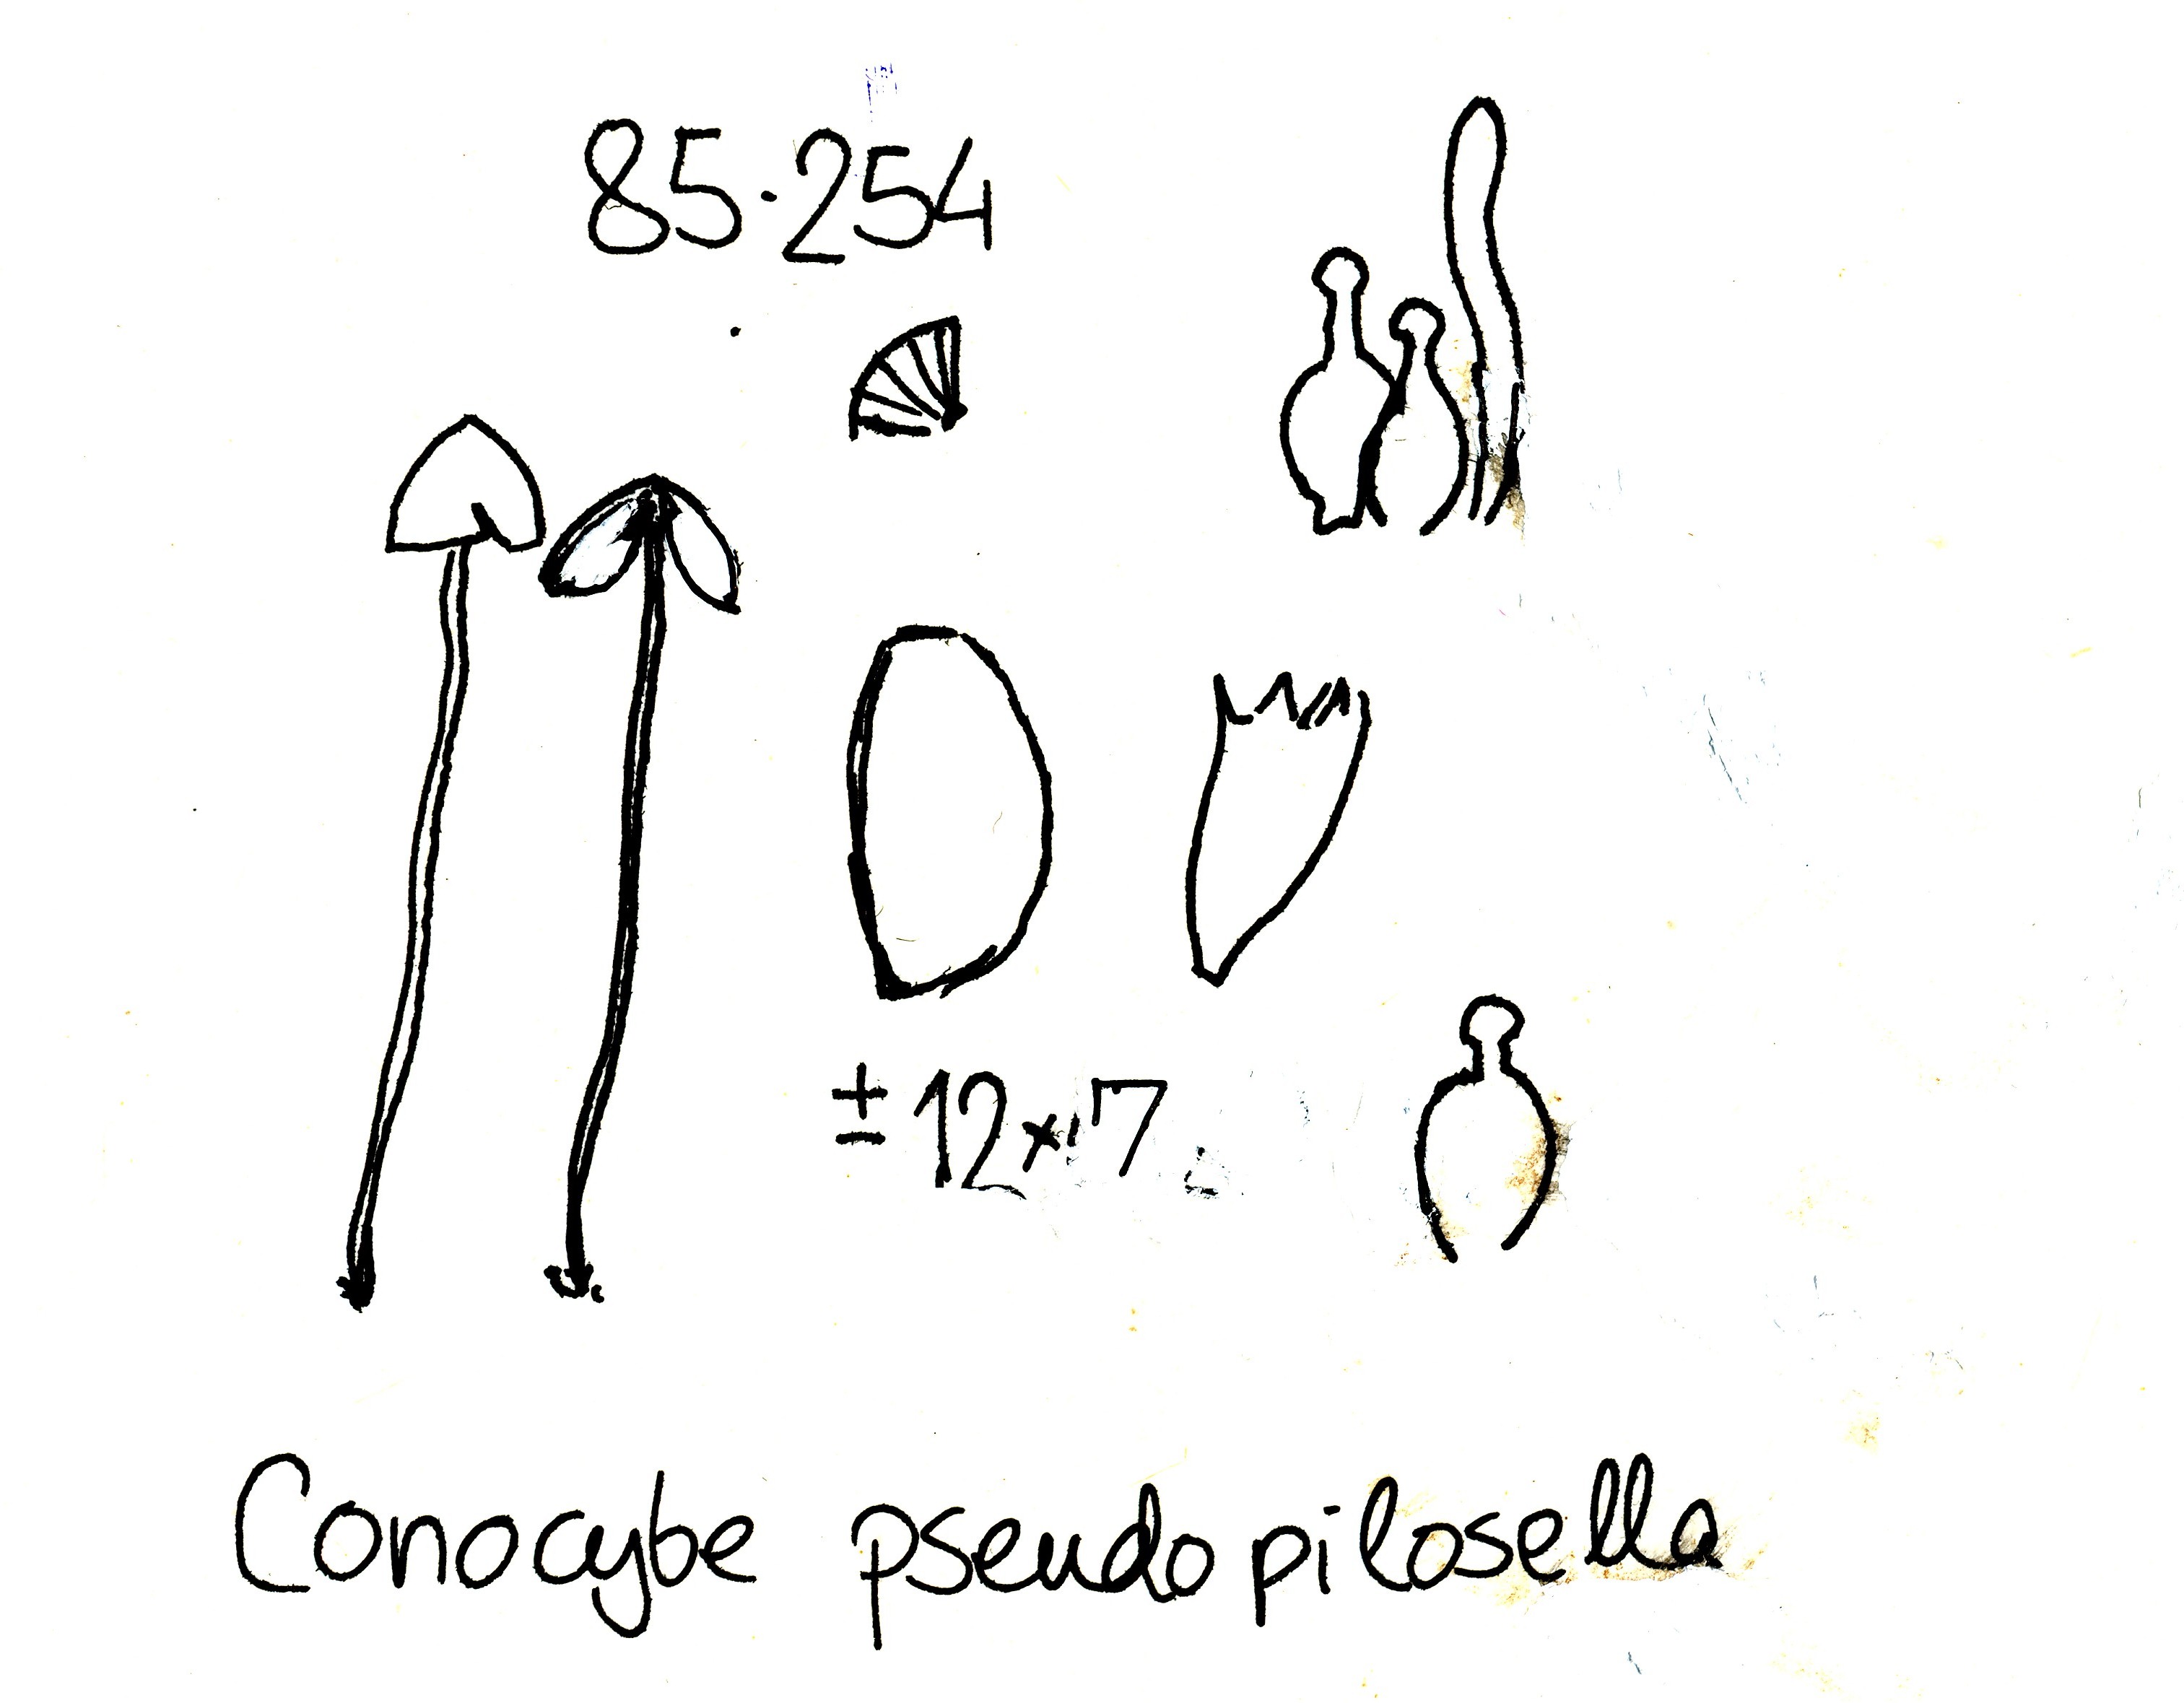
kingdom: Fungi
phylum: Basidiomycota
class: Agaricomycetes
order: Agaricales
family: Bolbitiaceae
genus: Conocybe
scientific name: Conocybe brunneidisca
